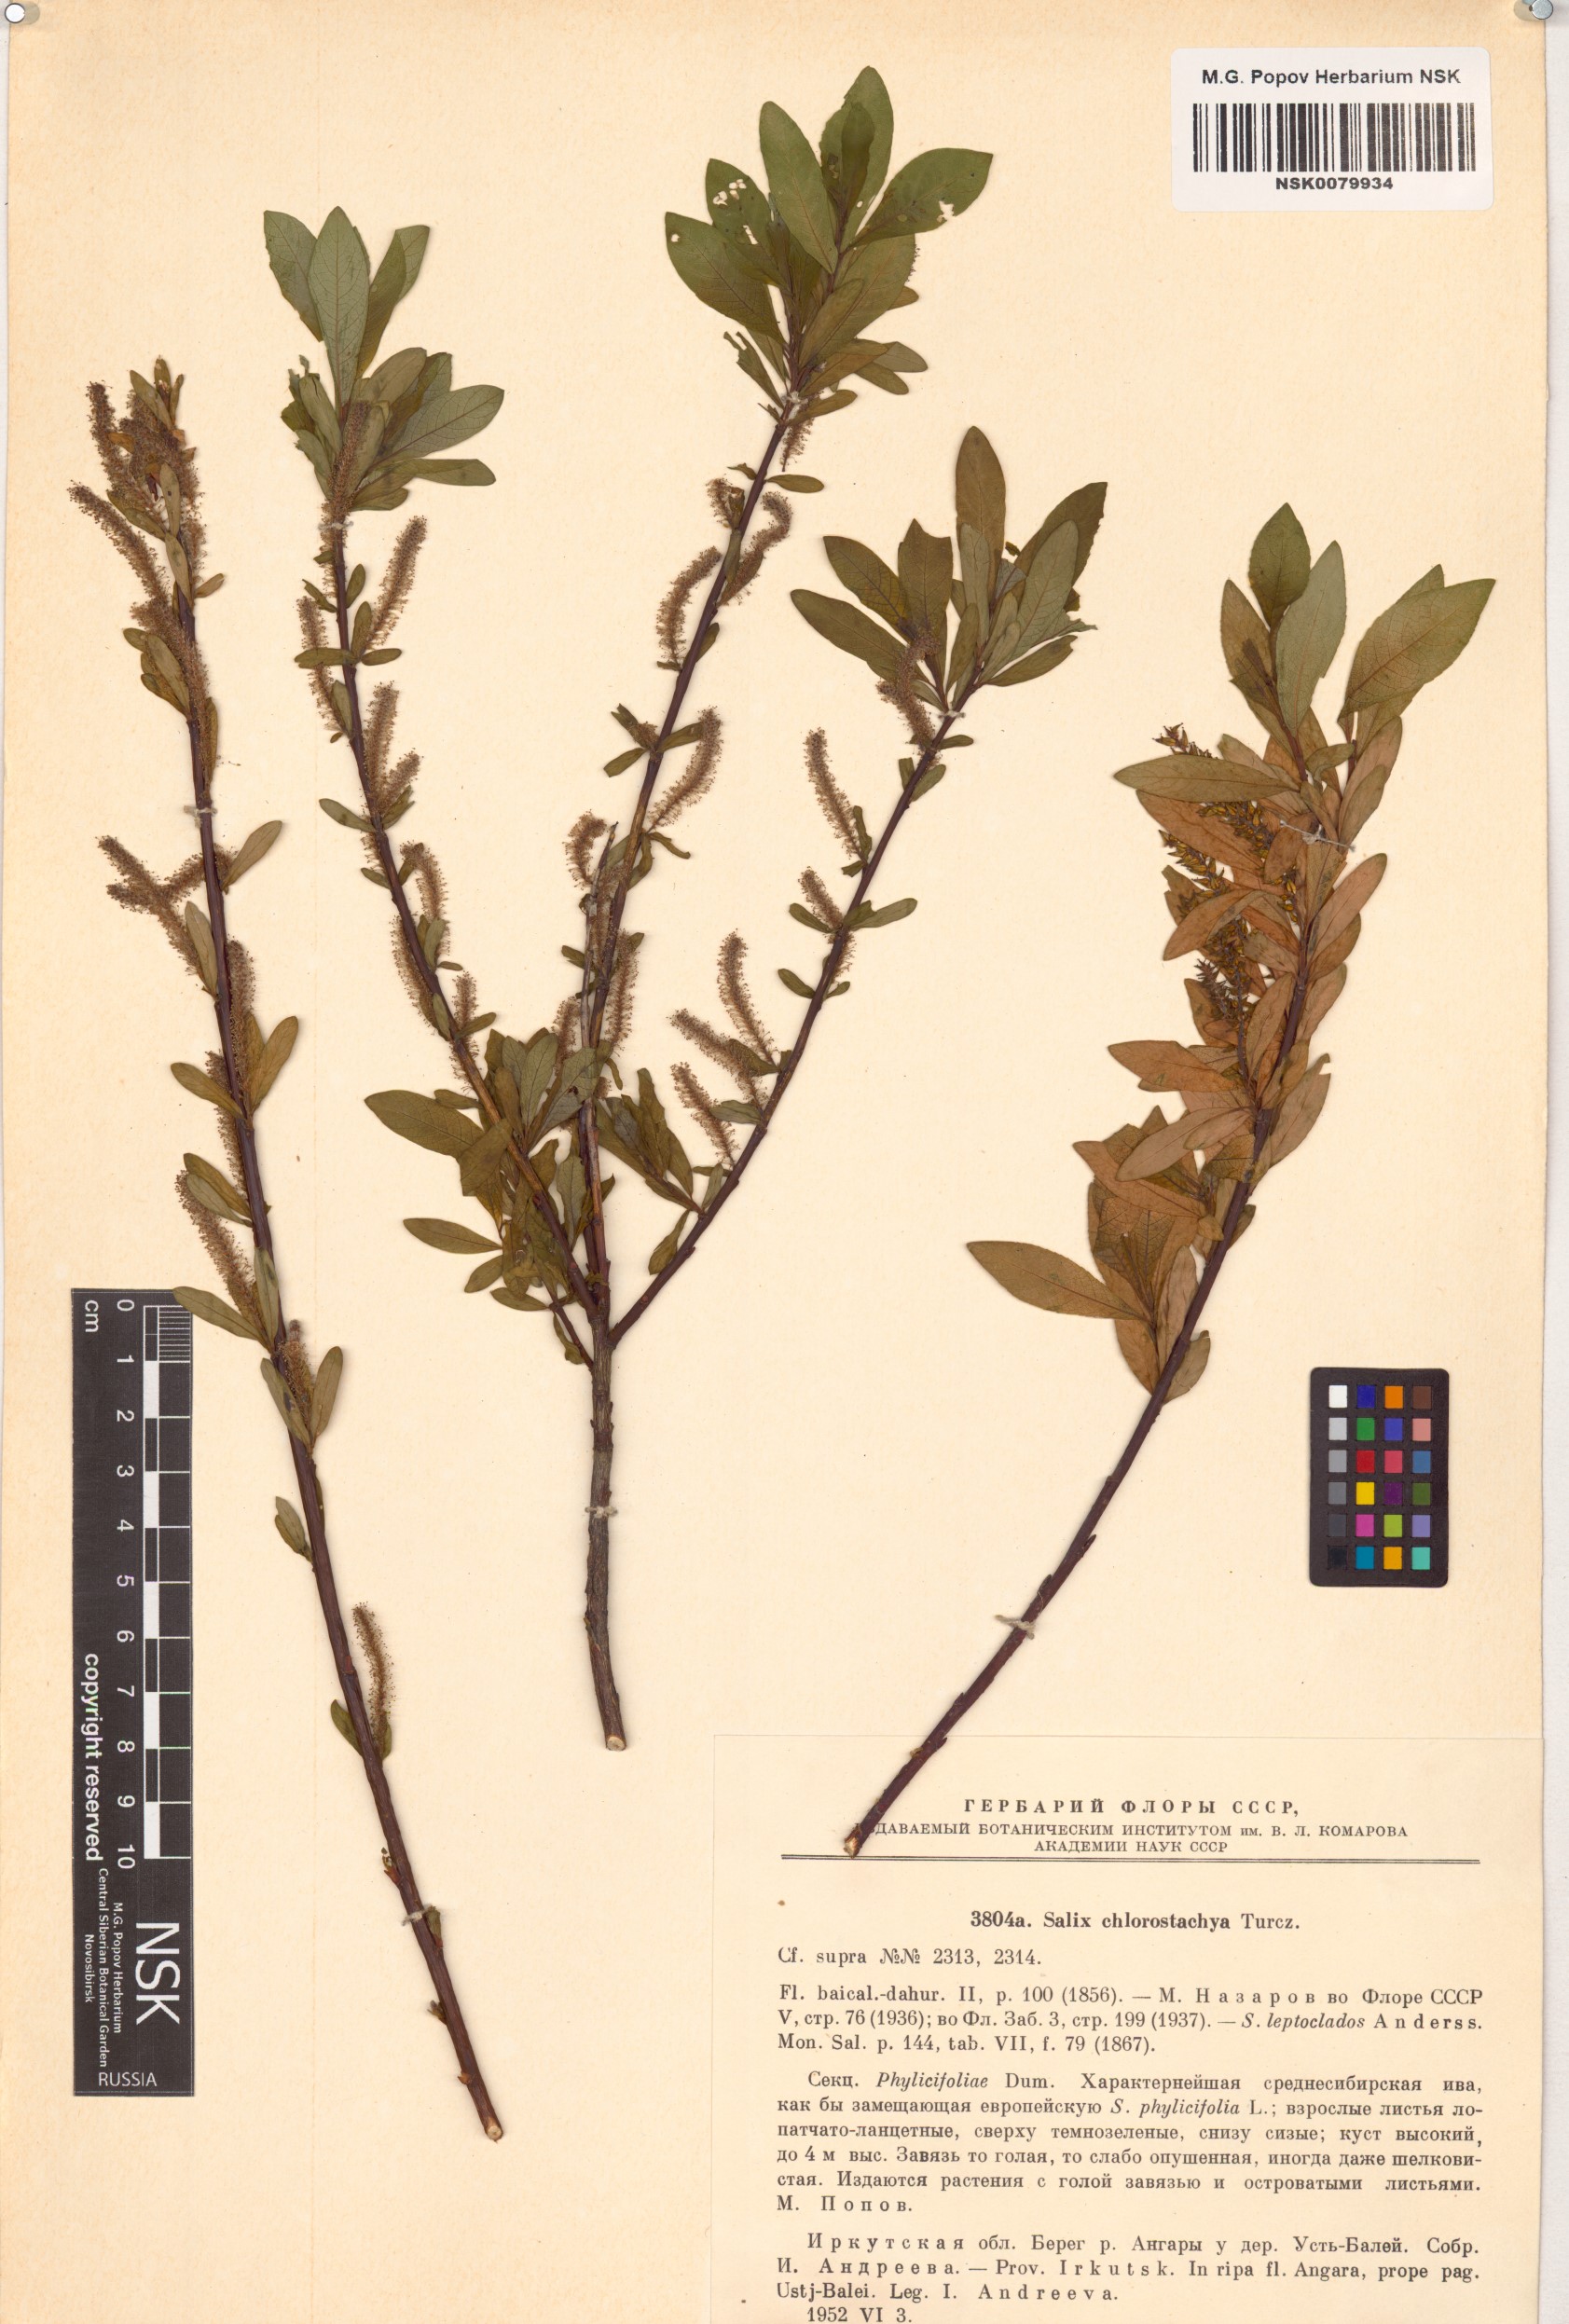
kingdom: Plantae
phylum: Tracheophyta
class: Magnoliopsida
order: Malpighiales
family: Salicaceae
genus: Salix
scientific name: Salix rhamnifolia
